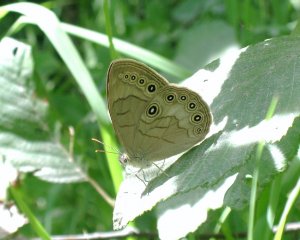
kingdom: Animalia
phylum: Arthropoda
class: Insecta
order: Lepidoptera
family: Nymphalidae
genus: Lethe
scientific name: Lethe eurydice
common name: Appalachian Eyed Brown
